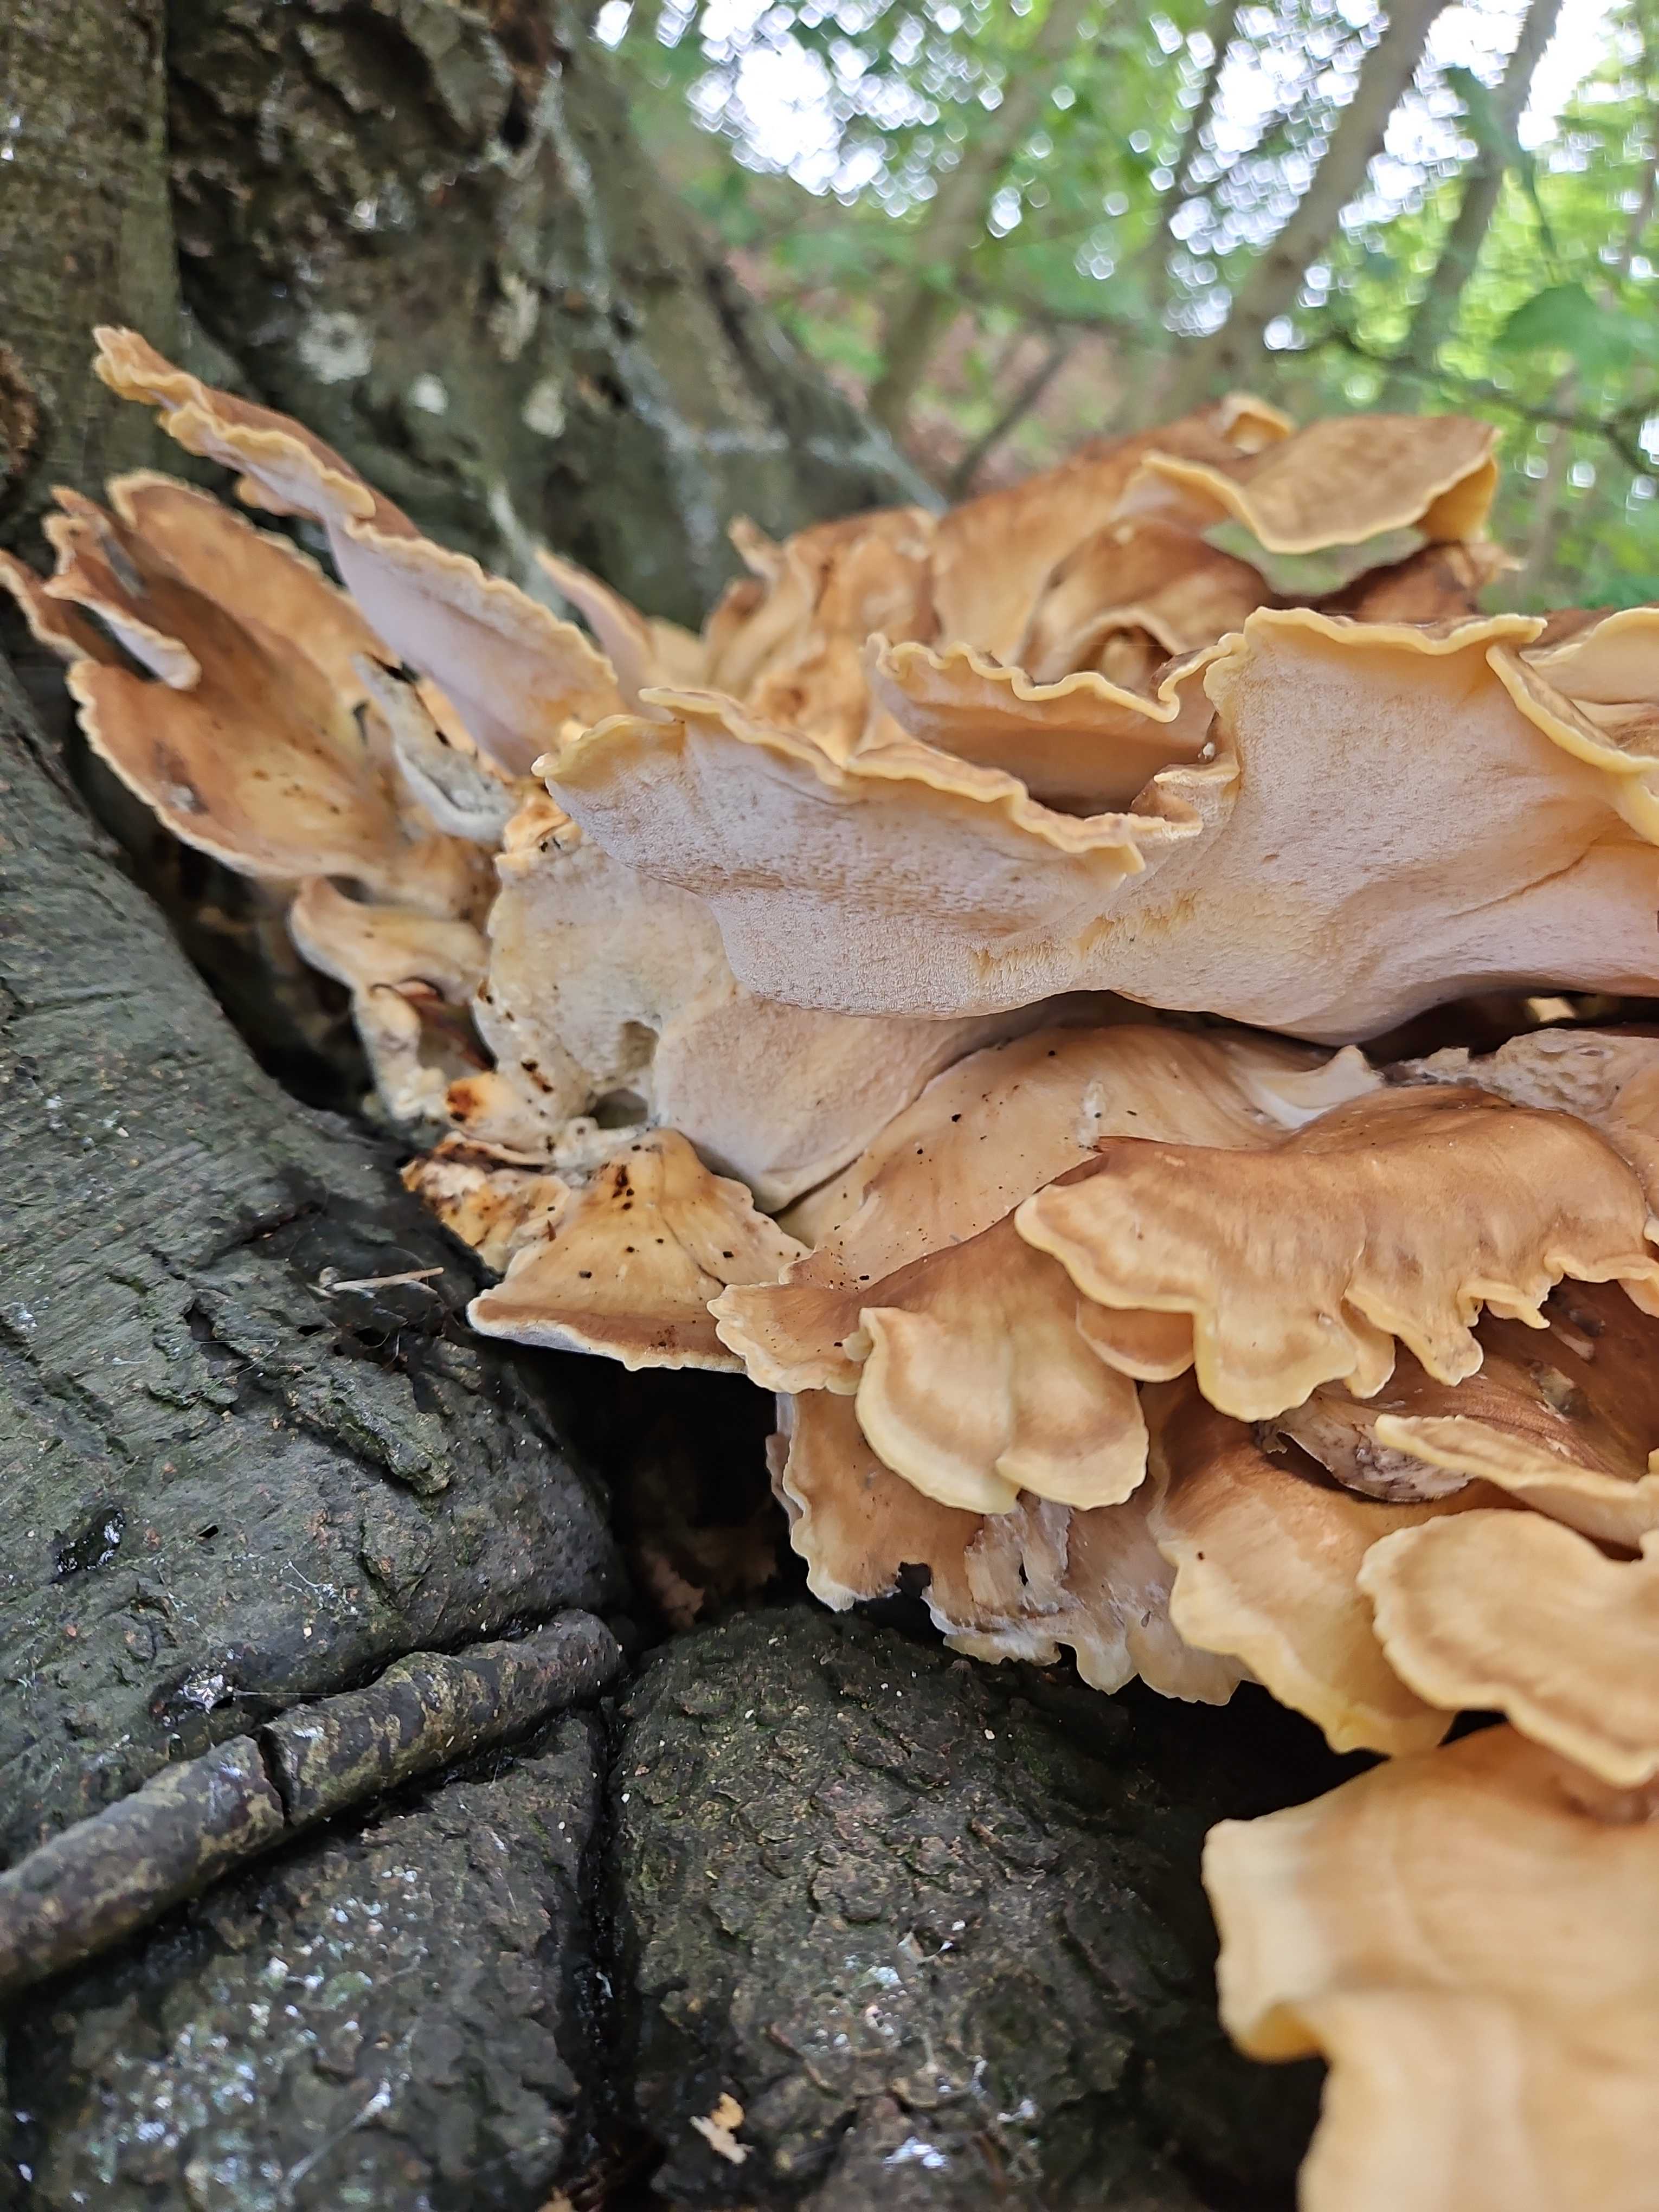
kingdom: Fungi
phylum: Basidiomycota
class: Agaricomycetes
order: Polyporales
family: Meripilaceae
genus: Meripilus
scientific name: Meripilus giganteus
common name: kæmpeporesvamp
